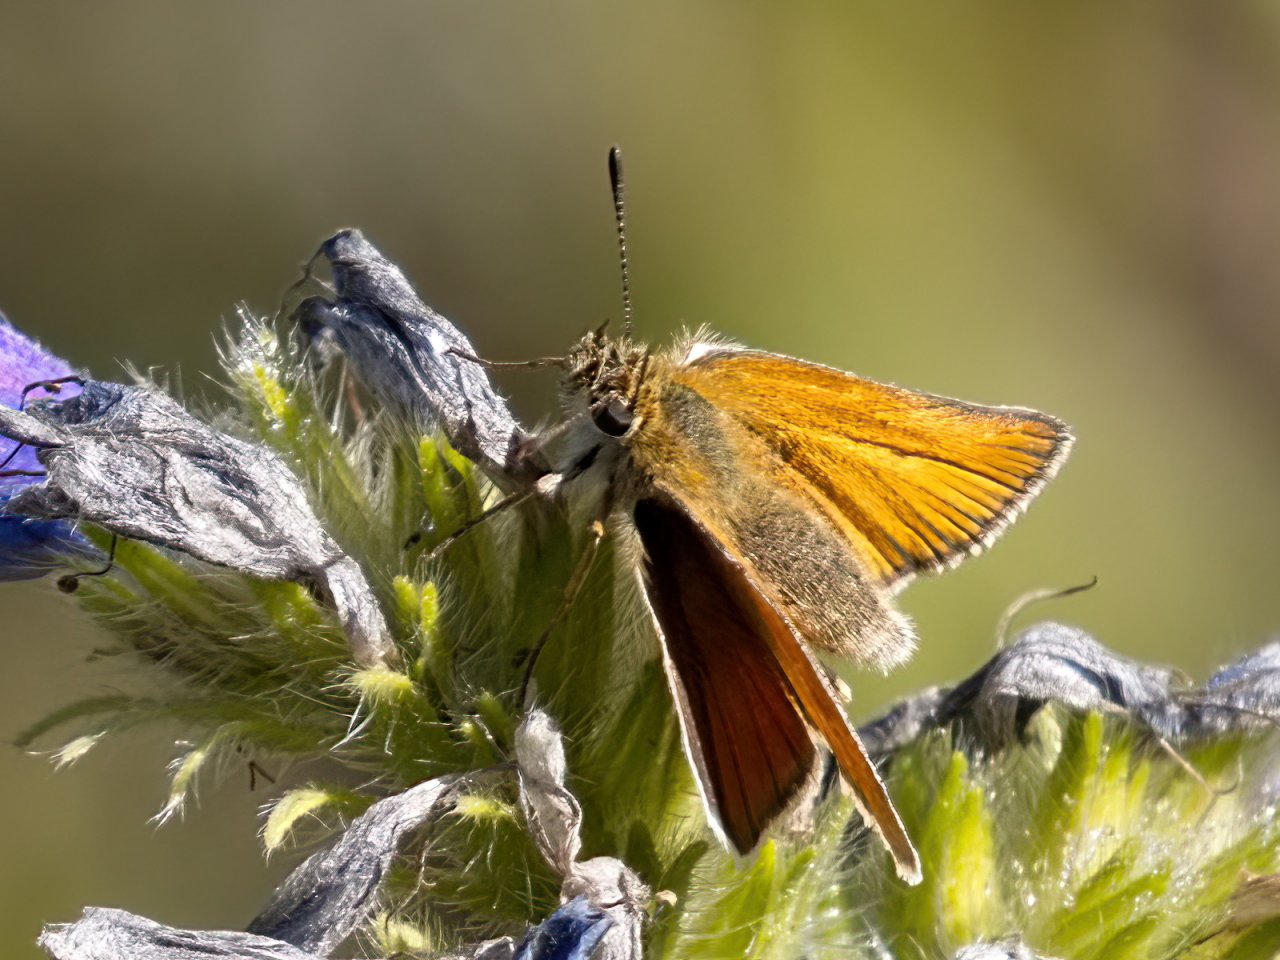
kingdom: Animalia
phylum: Arthropoda
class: Insecta
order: Lepidoptera
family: Hesperiidae
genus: Thymelicus
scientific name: Thymelicus lineola
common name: European Skipper
